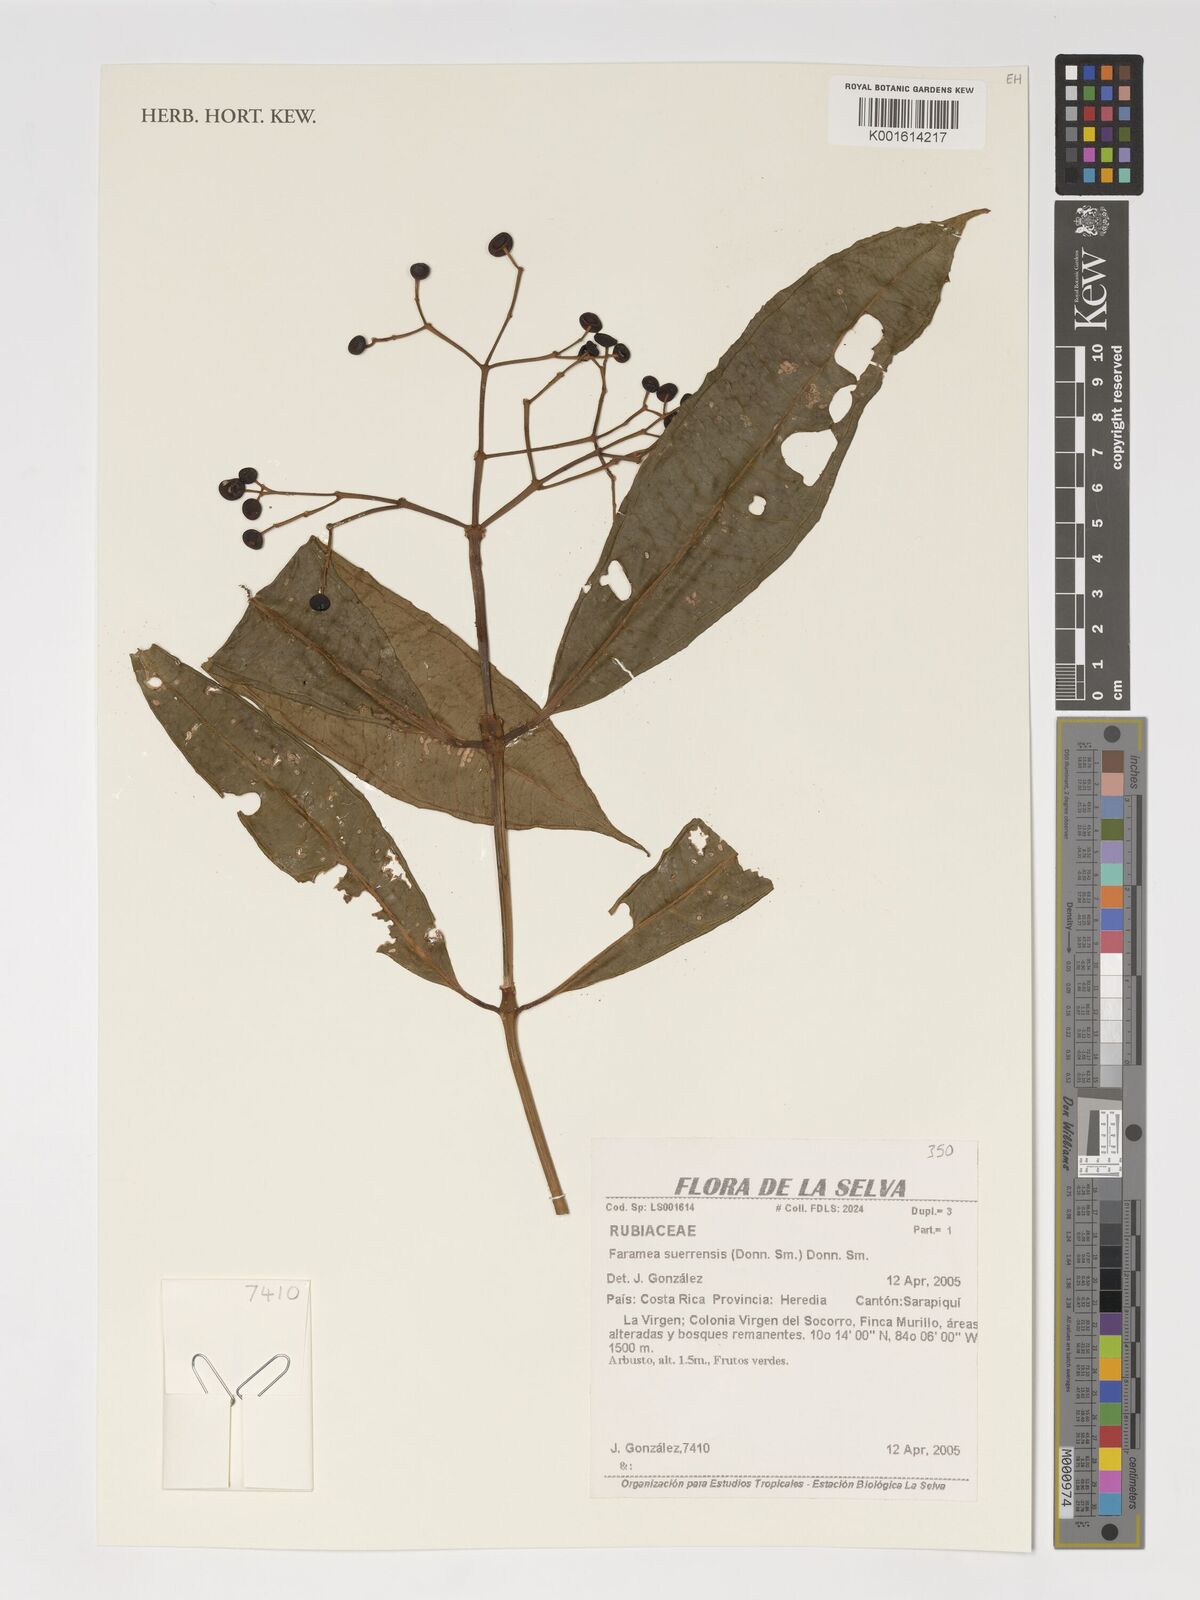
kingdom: Plantae
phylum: Tracheophyta
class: Magnoliopsida
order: Gentianales
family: Rubiaceae
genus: Faramea
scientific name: Faramea suerrensis
